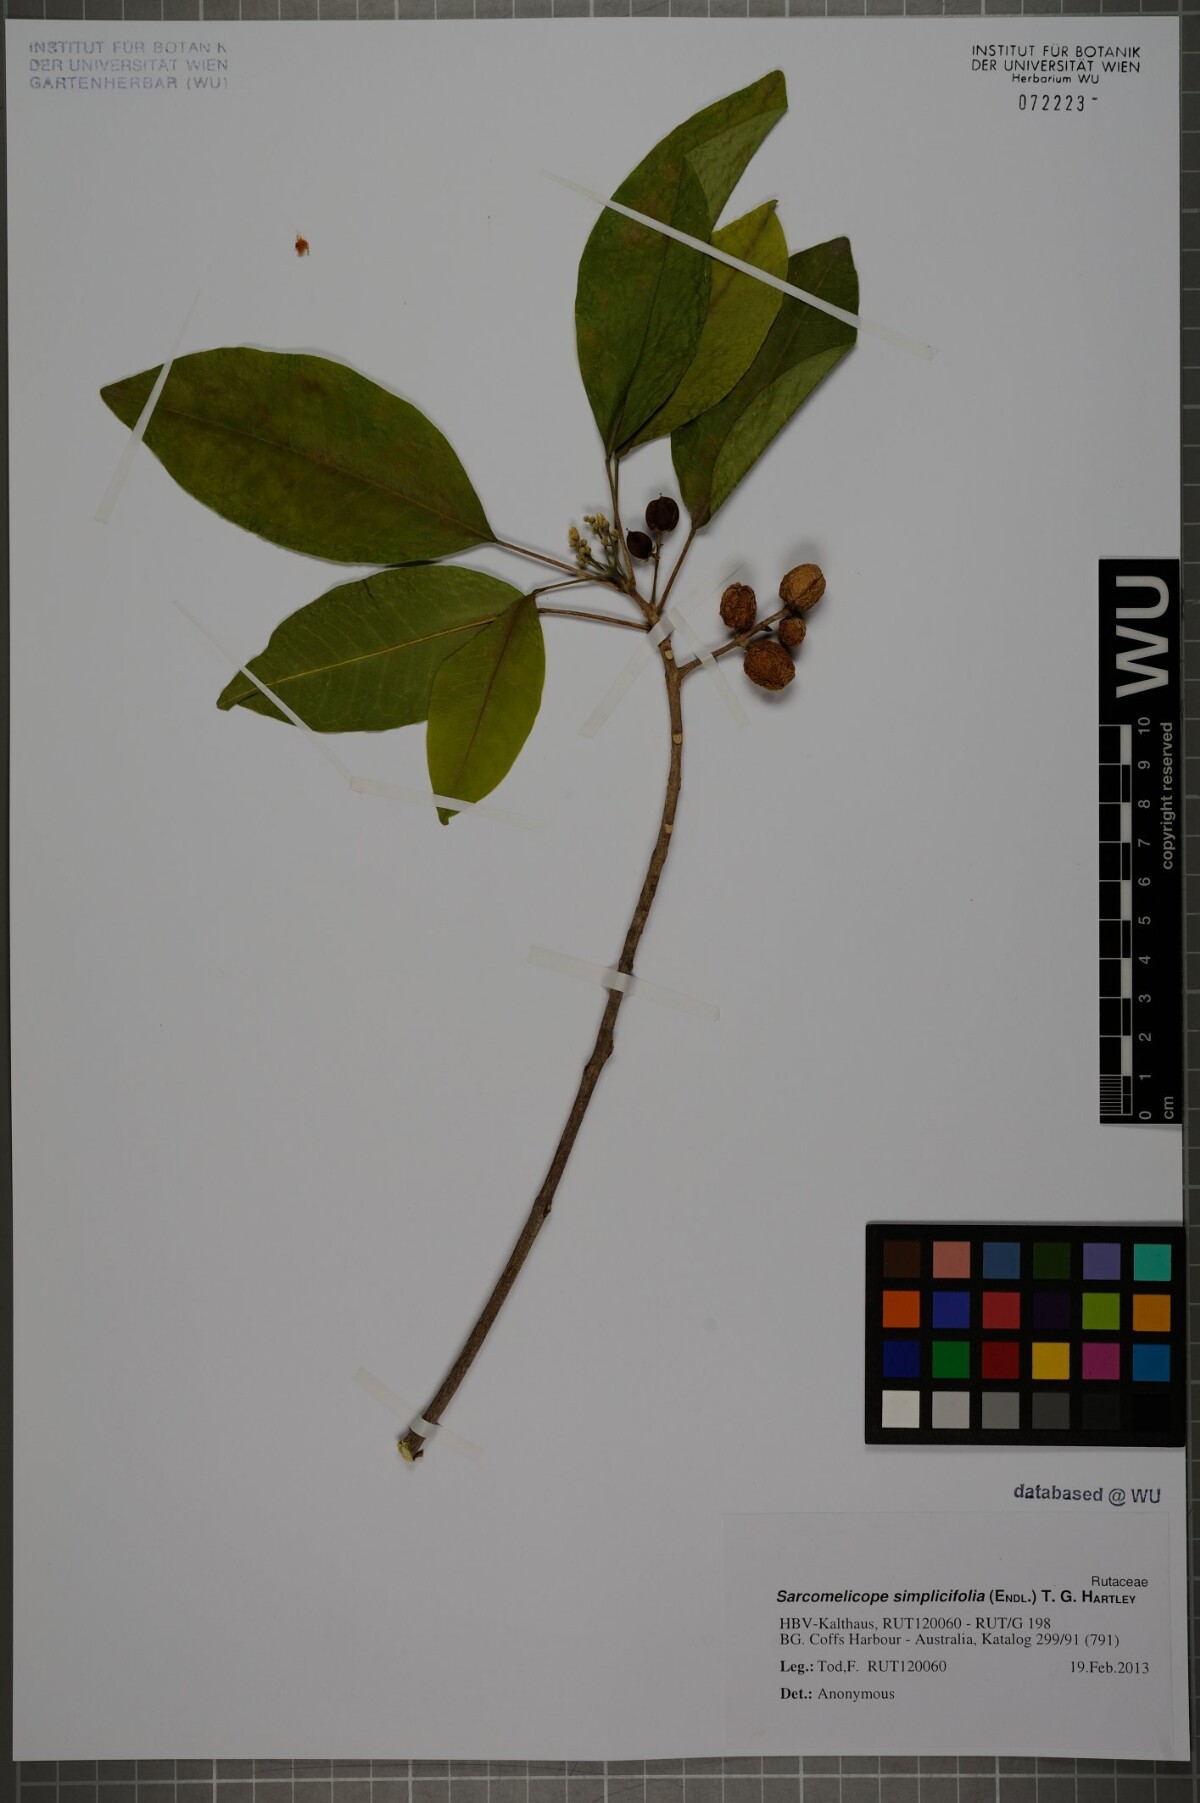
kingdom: Plantae
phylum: Tracheophyta
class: Magnoliopsida
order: Sapindales
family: Rutaceae
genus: Sarcomelicope
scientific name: Sarcomelicope simplicifolia
